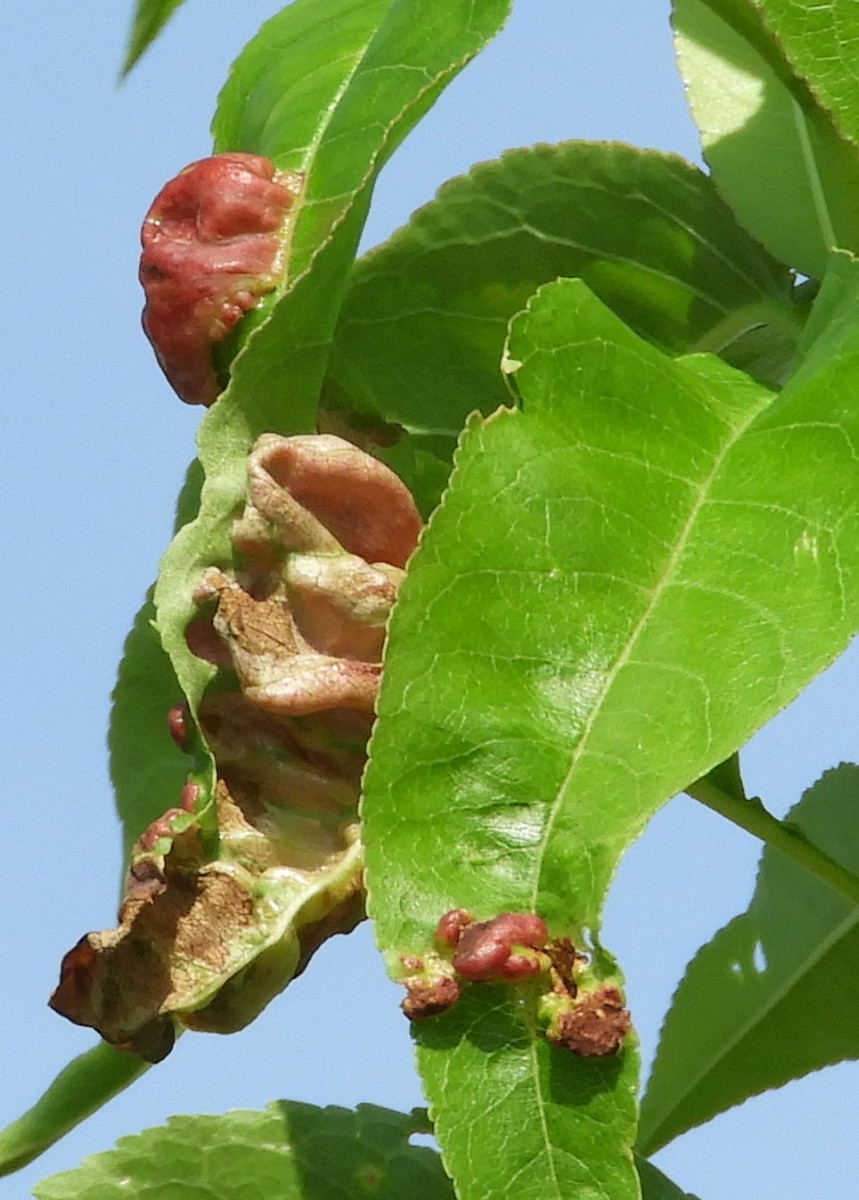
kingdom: Fungi
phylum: Ascomycota
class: Taphrinomycetes
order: Taphrinales
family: Taphrinaceae
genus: Taphrina
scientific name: Taphrina deformans
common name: Peach leaf curl
